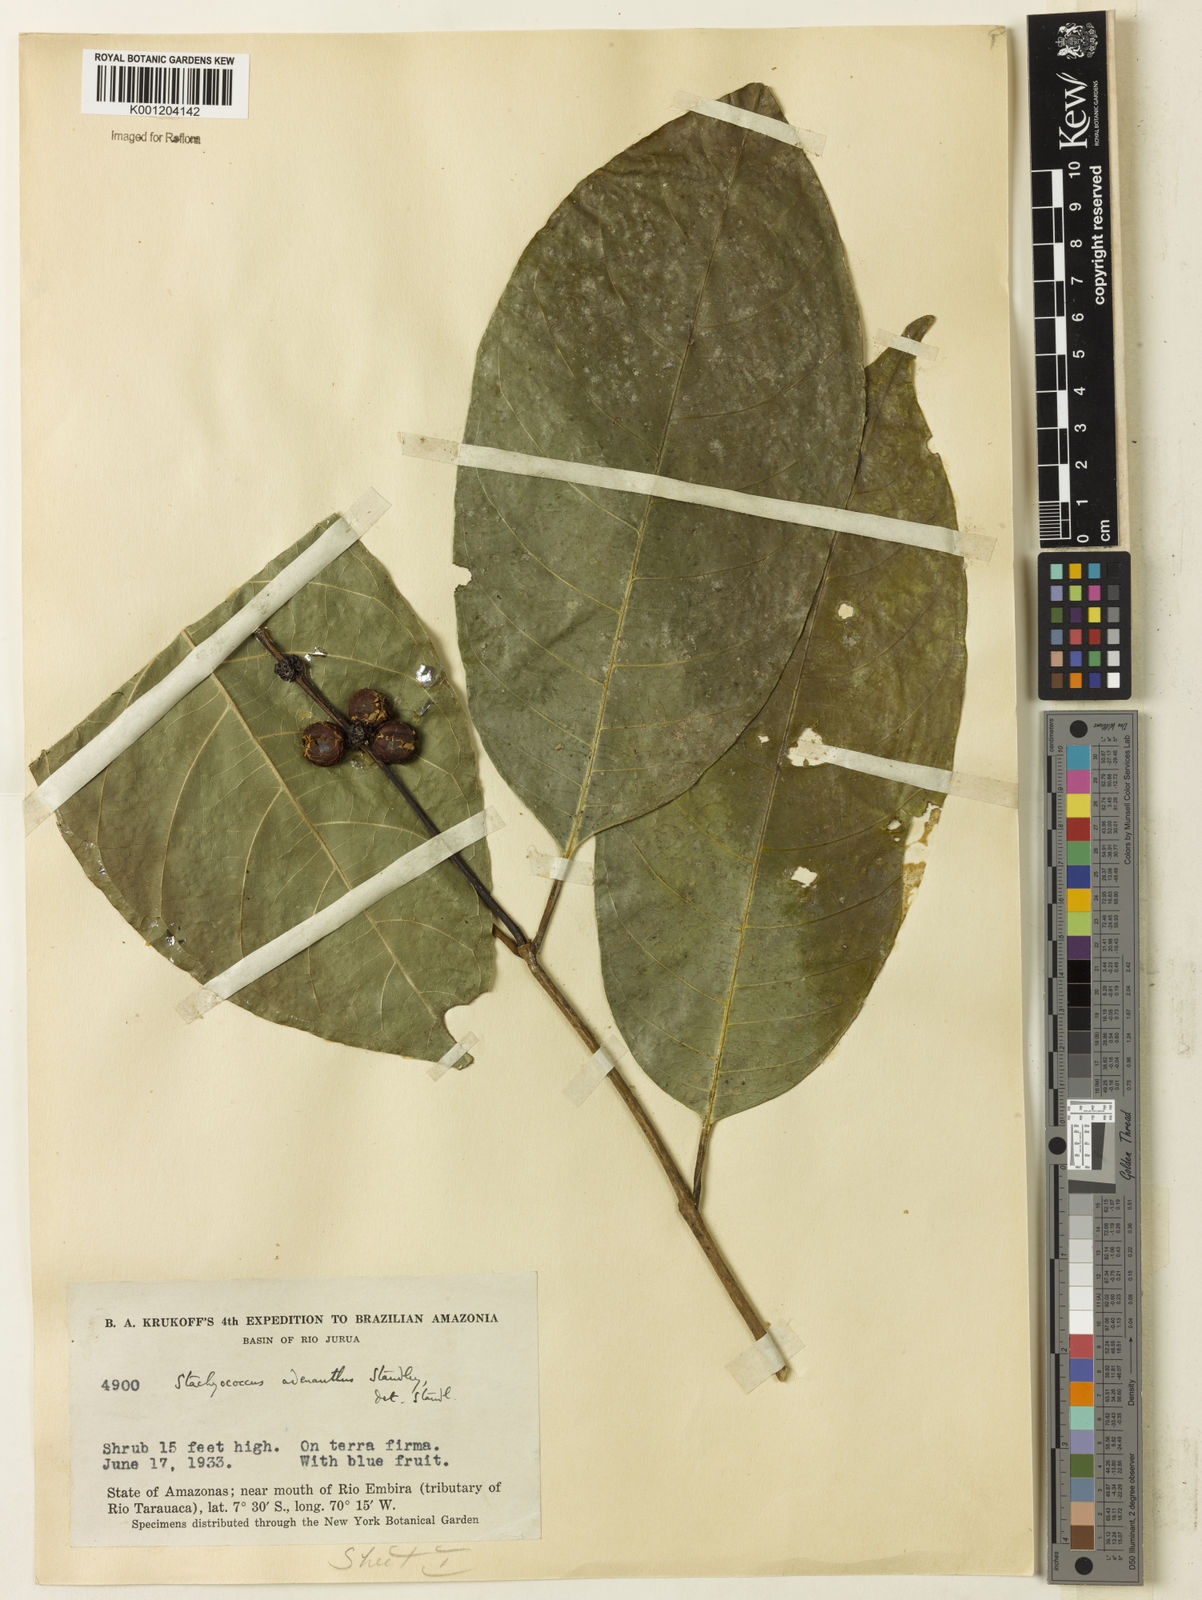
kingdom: Plantae
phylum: Tracheophyta
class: Magnoliopsida
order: Gentianales
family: Rubiaceae
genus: Carapichea
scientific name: Carapichea adinantha
